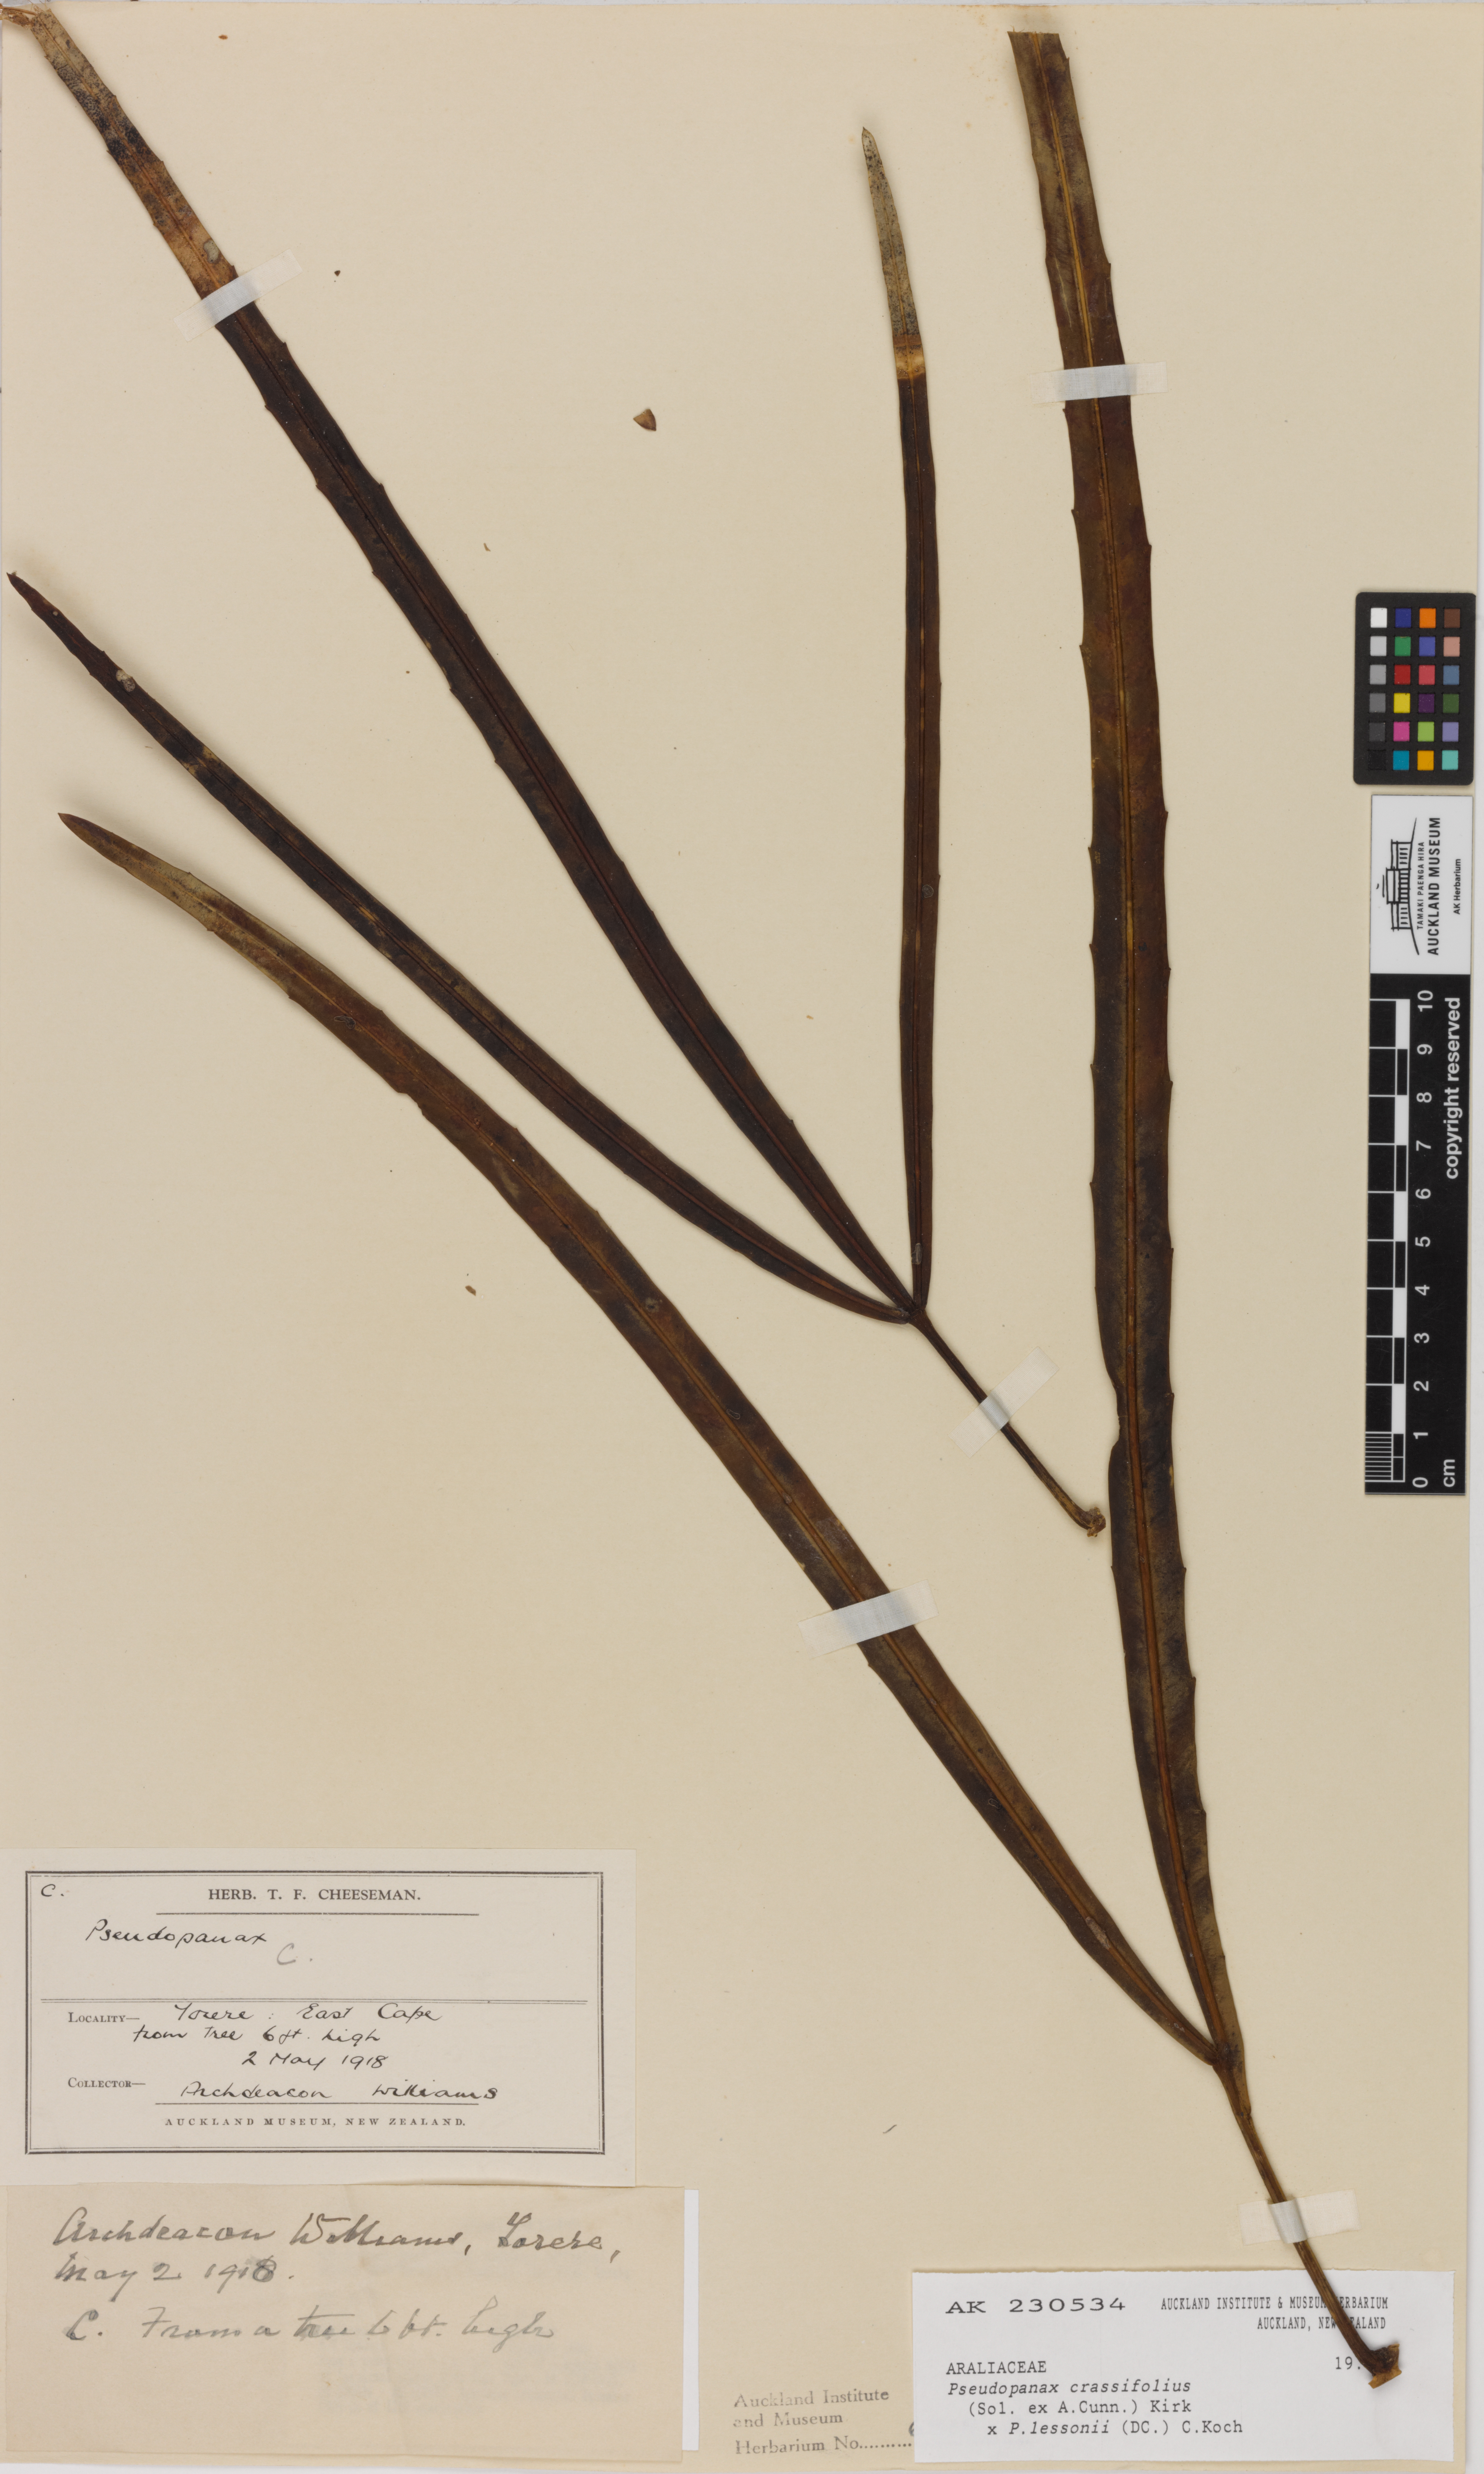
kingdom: Plantae
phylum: Tracheophyta
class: Magnoliopsida
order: Apiales
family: Araliaceae
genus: Pseudopanax
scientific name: Pseudopanax
